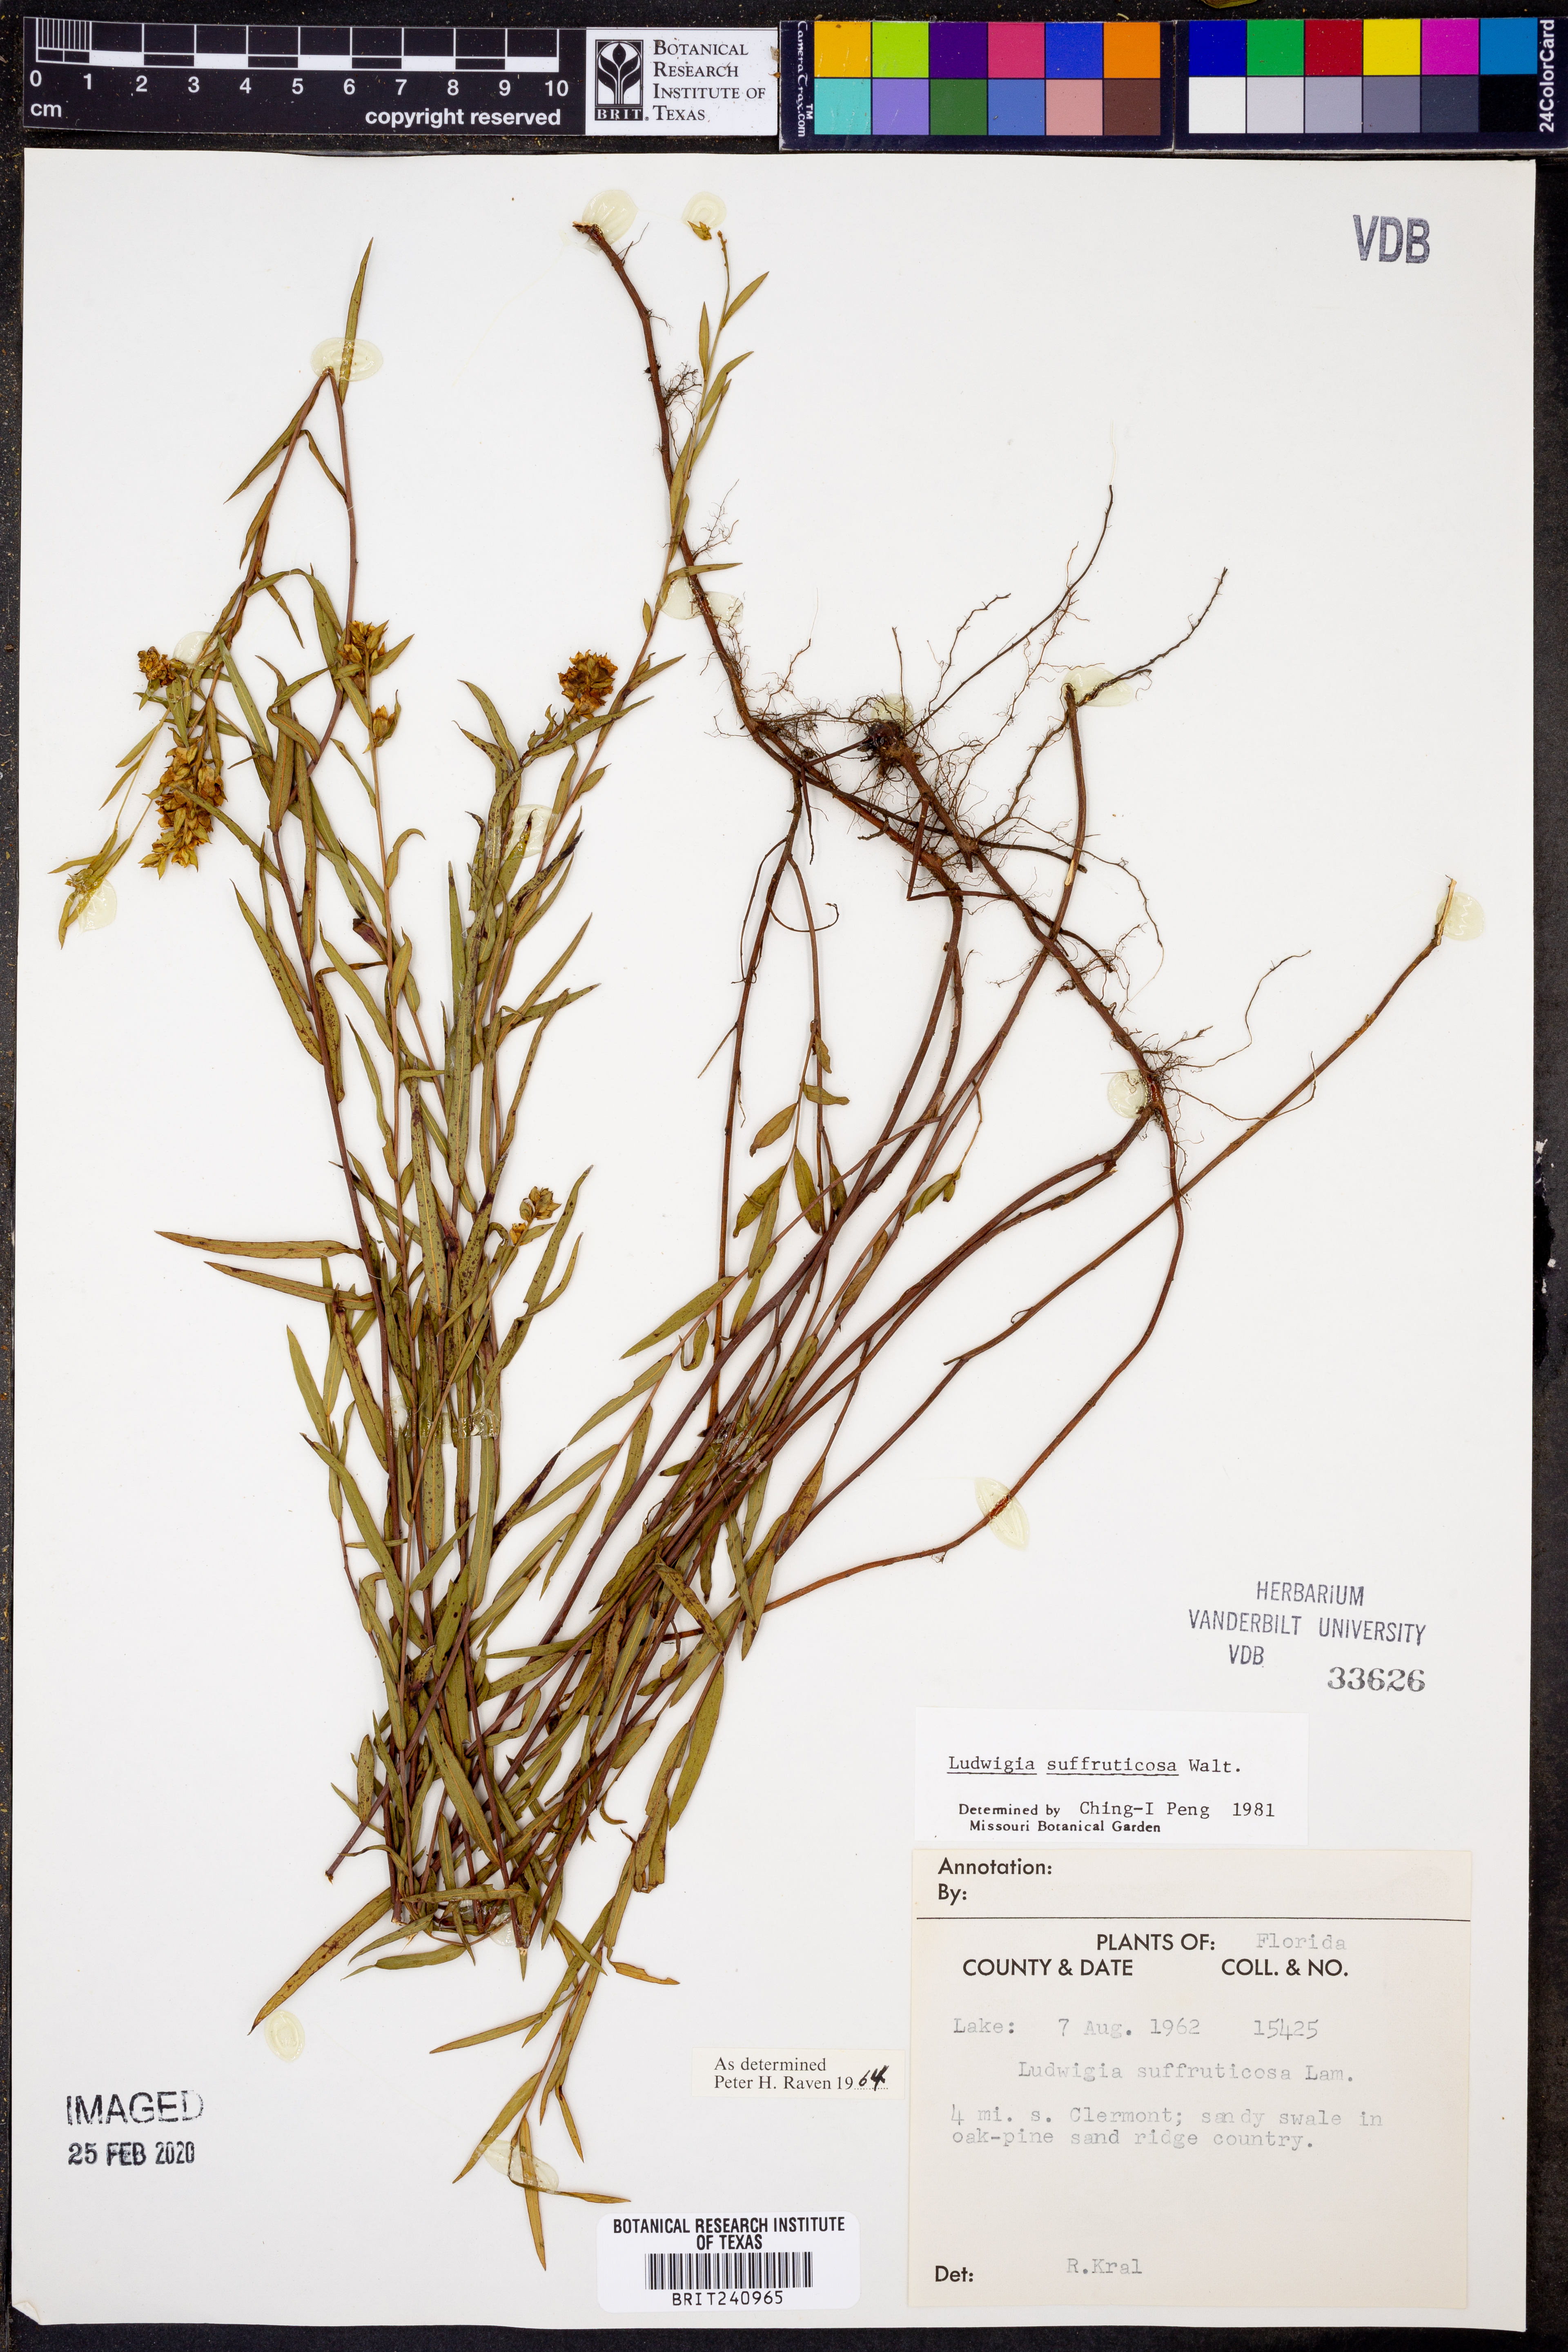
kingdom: Plantae
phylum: Tracheophyta
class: Magnoliopsida
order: Myrtales
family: Onagraceae
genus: Ludwigia
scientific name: Ludwigia suffruticosa
